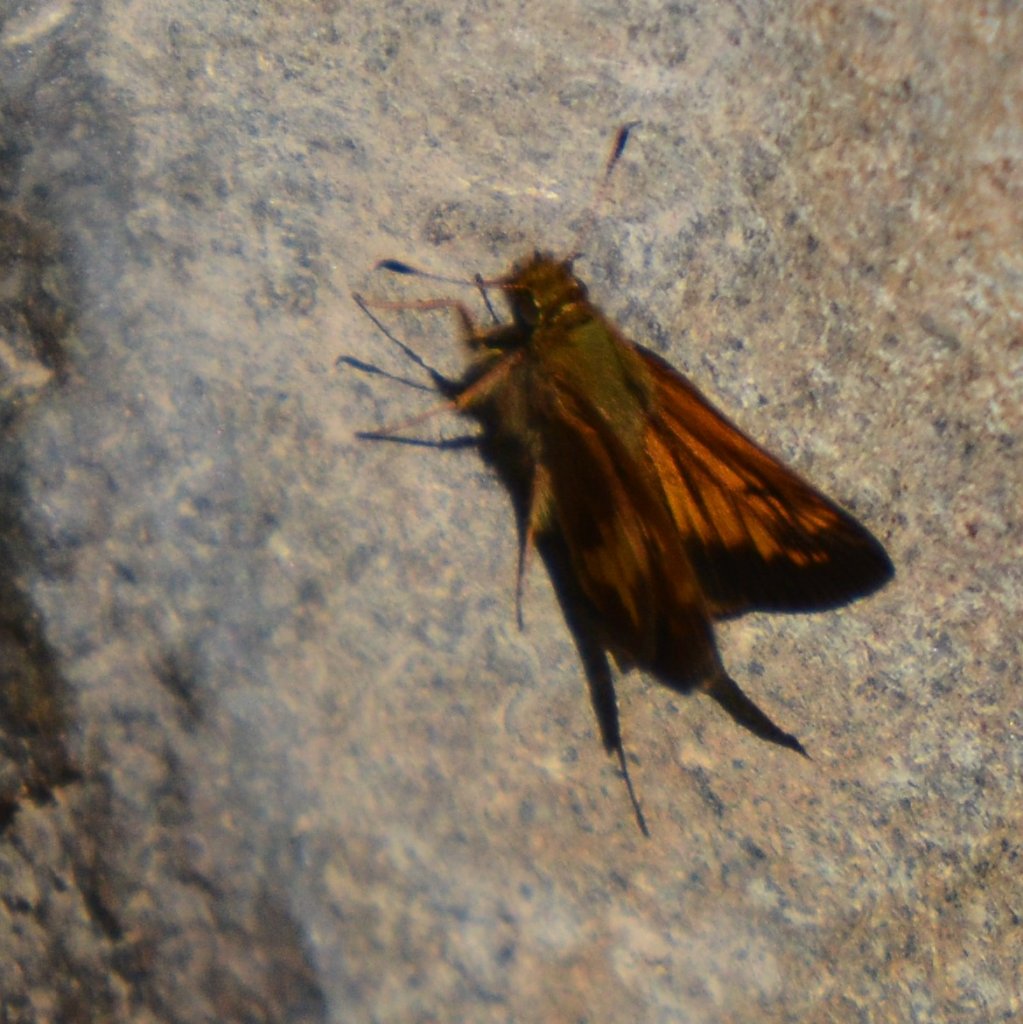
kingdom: Animalia
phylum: Arthropoda
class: Insecta
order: Lepidoptera
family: Hesperiidae
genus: Lon
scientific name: Lon hobomok
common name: Hobomok Skipper
